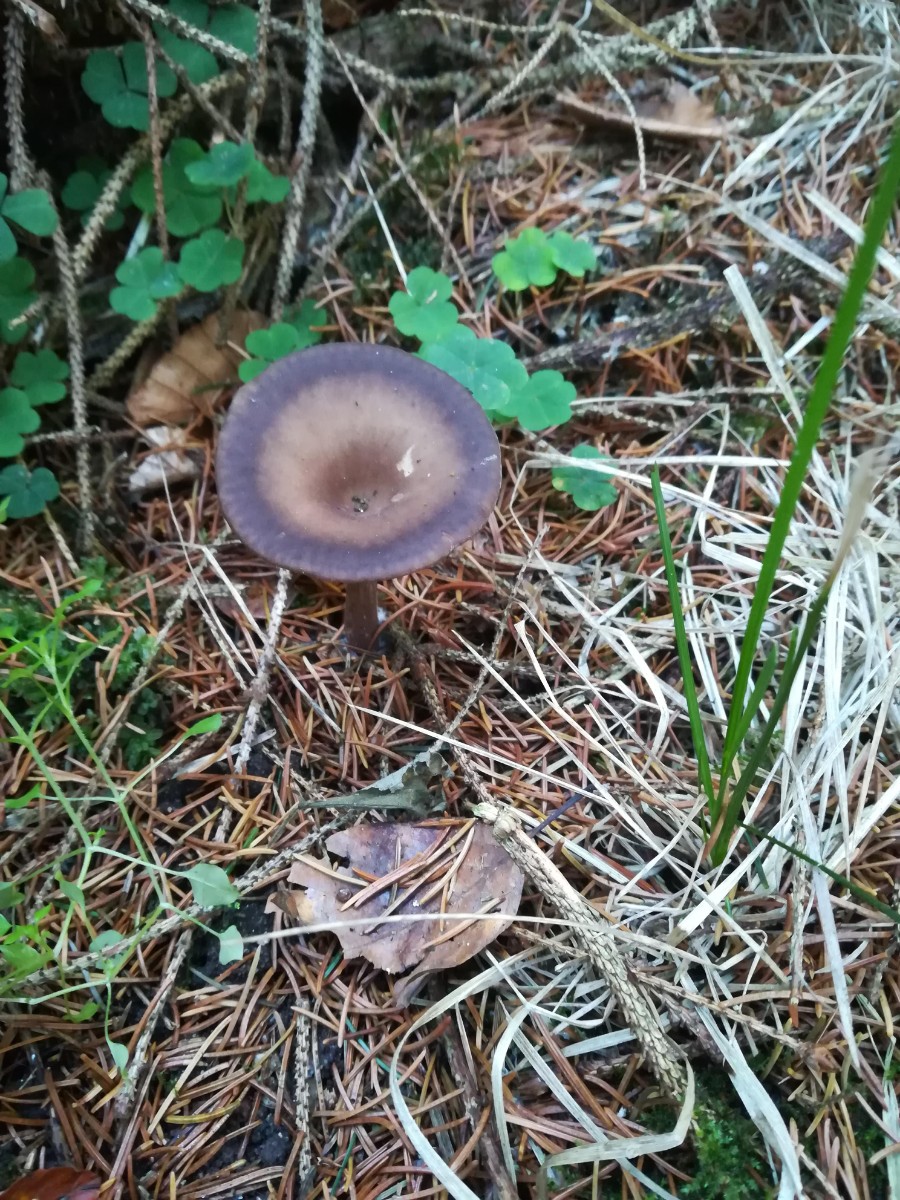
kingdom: Fungi
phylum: Basidiomycota
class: Agaricomycetes
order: Agaricales
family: Pseudoclitocybaceae
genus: Pseudoclitocybe
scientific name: Pseudoclitocybe cyathiformis
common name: almindelig bægertragthat
